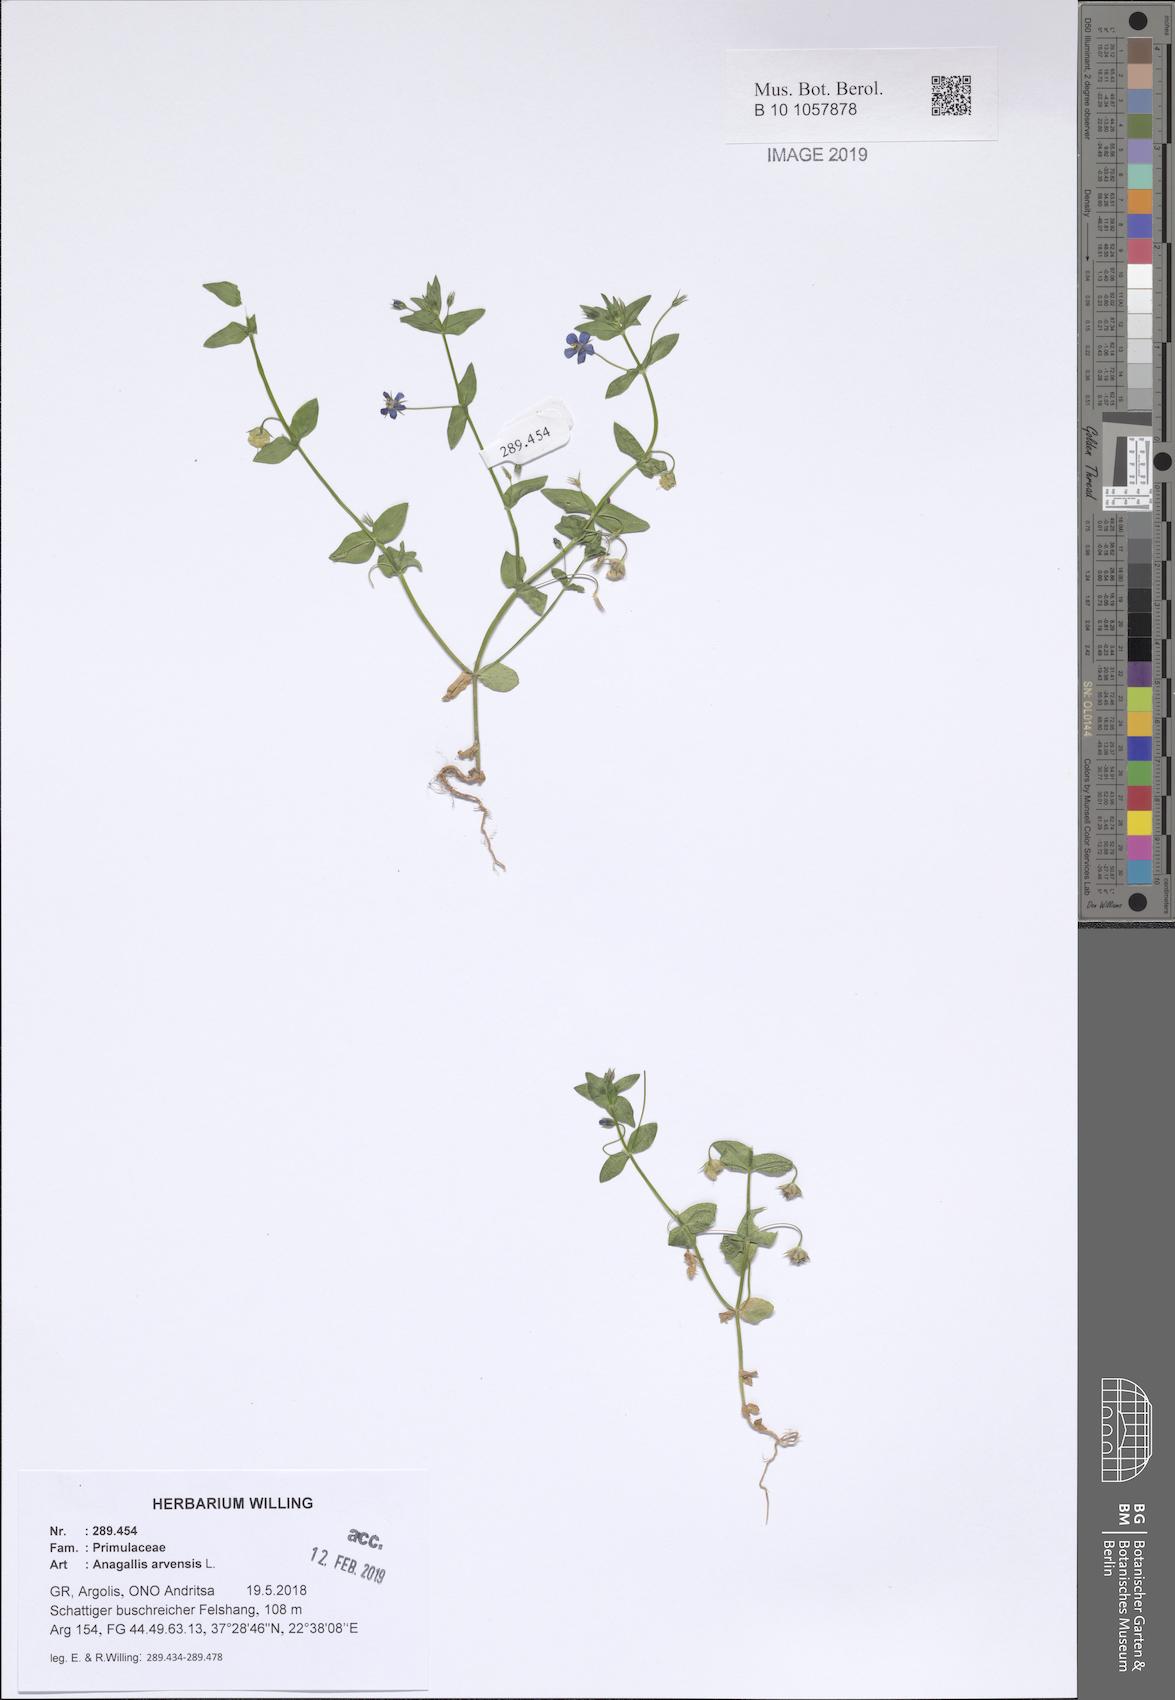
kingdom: Plantae
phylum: Tracheophyta
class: Magnoliopsida
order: Ericales
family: Primulaceae
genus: Lysimachia
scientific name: Lysimachia arvensis
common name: Scarlet pimpernel
